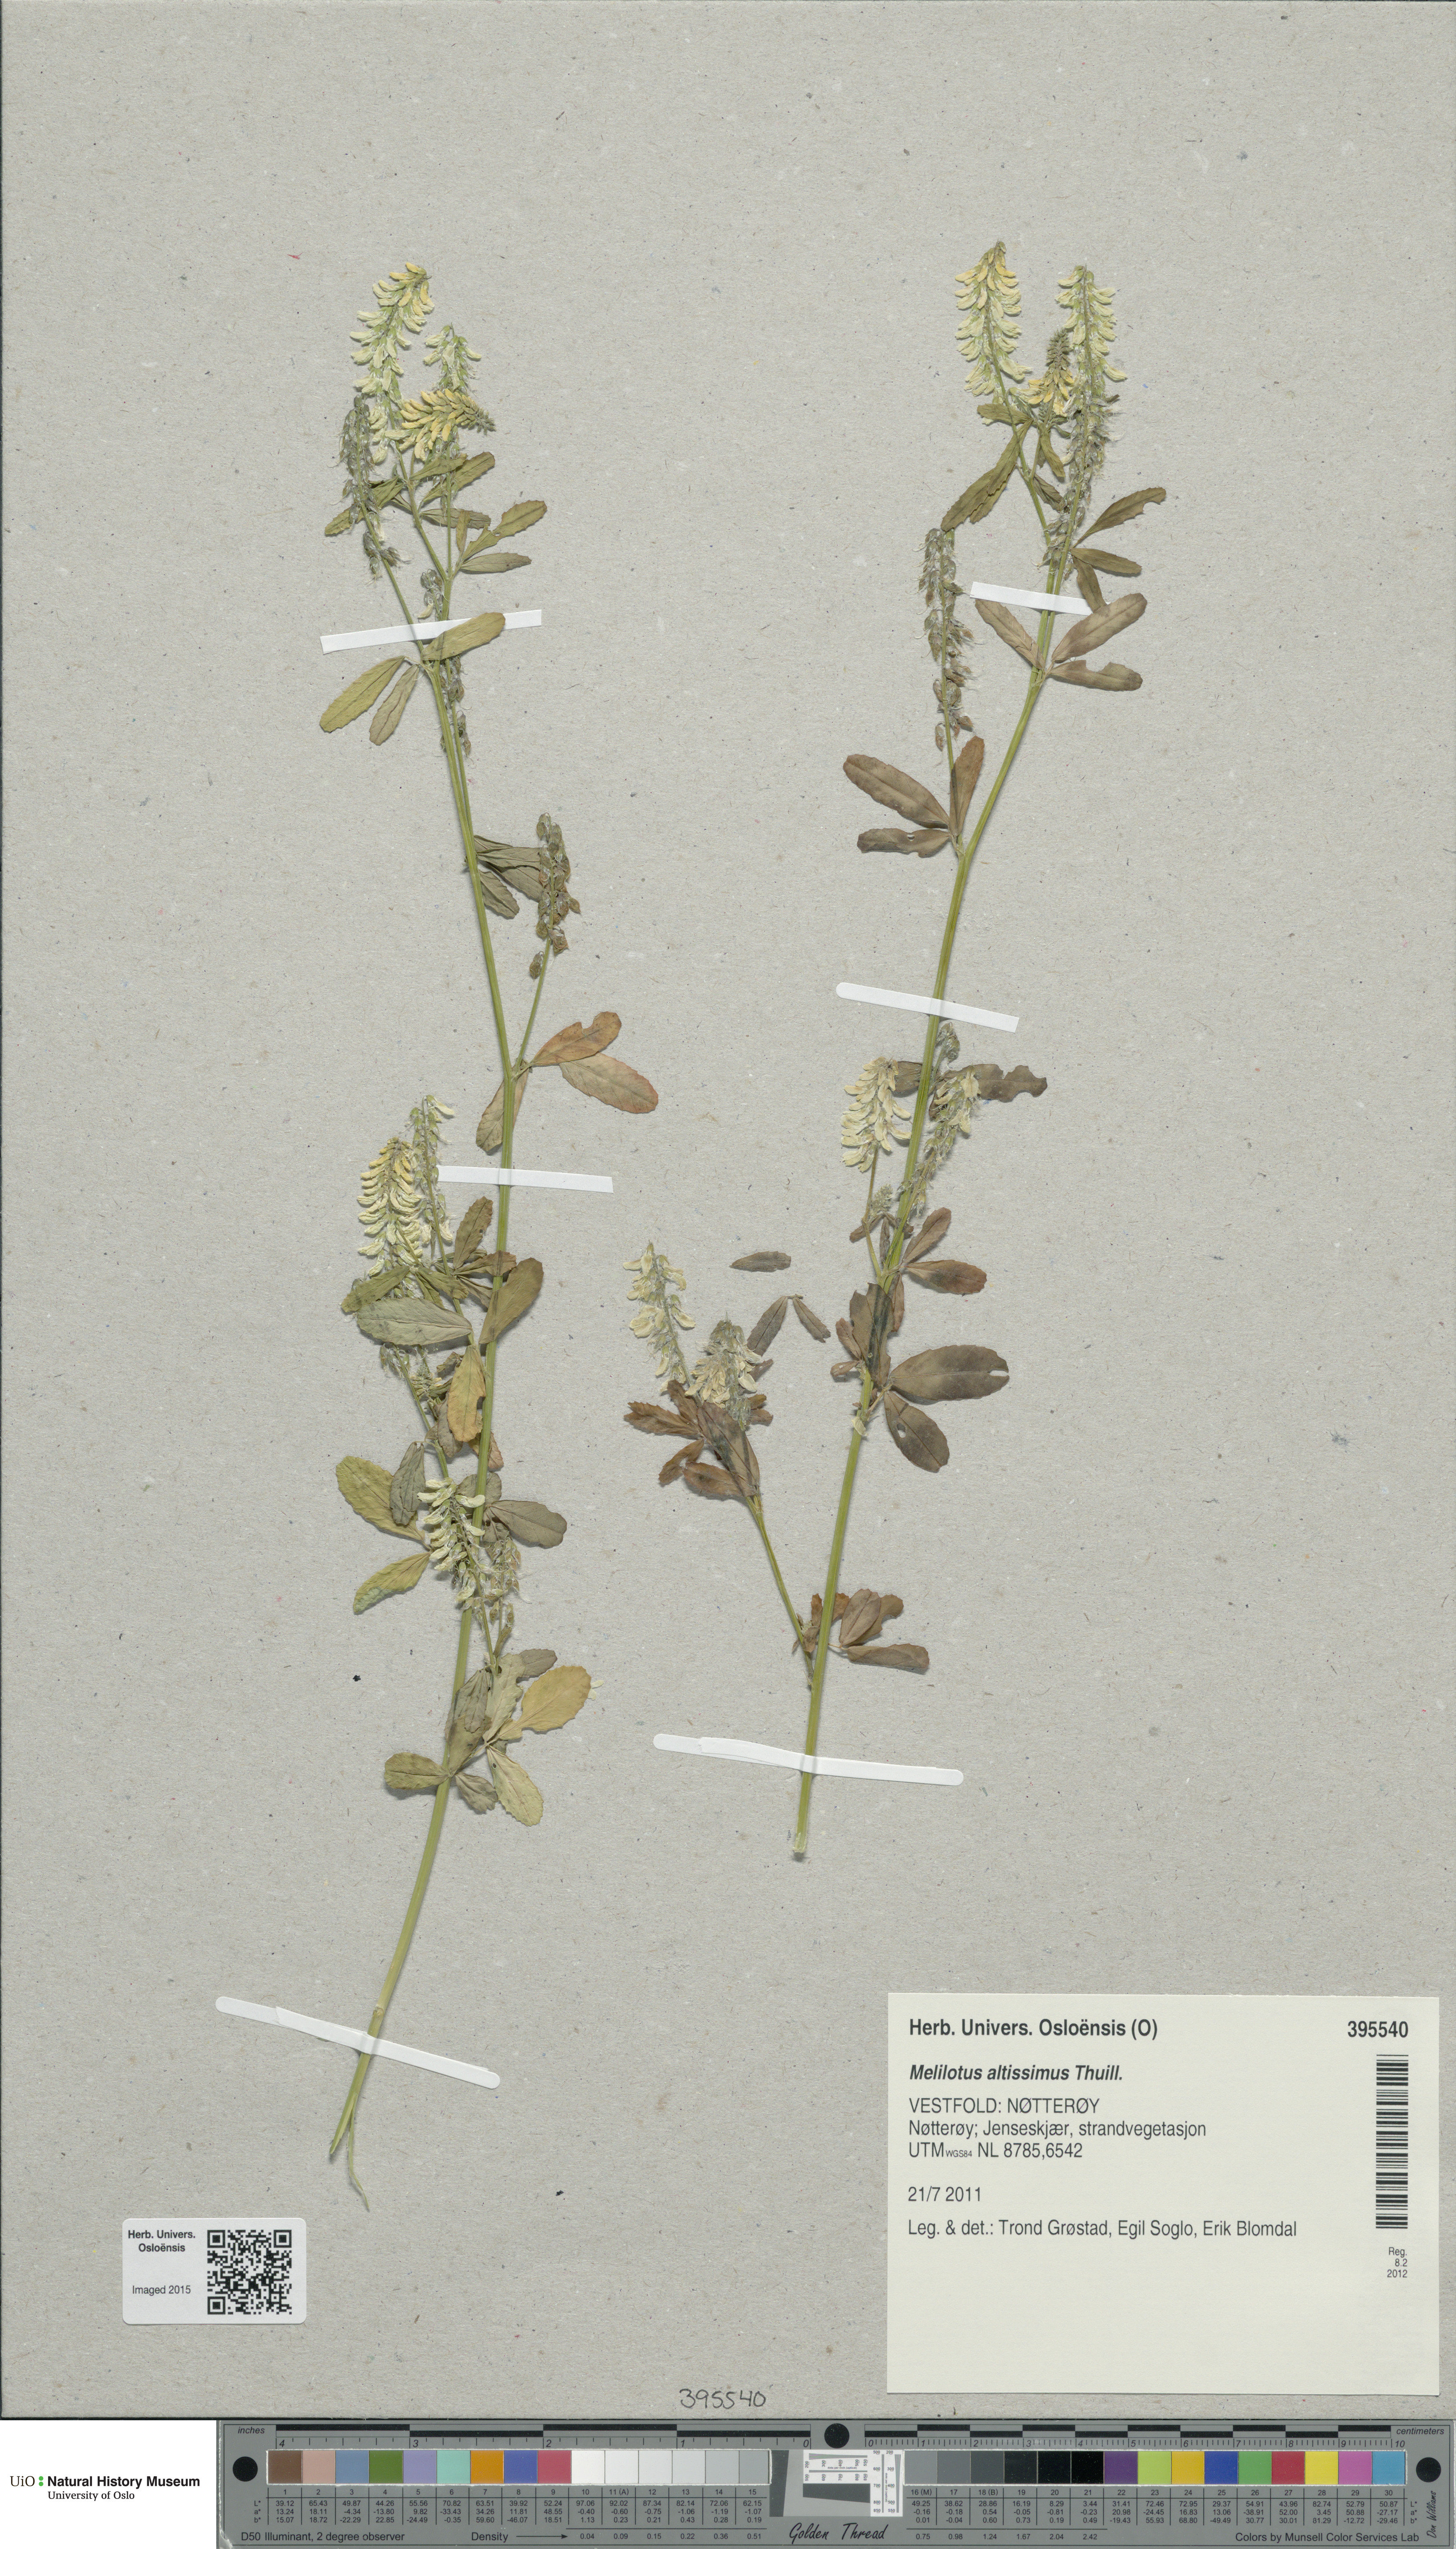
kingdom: Plantae
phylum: Tracheophyta
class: Magnoliopsida
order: Fabales
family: Fabaceae
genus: Melilotus
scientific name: Melilotus altissimus
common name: Tall melilot
